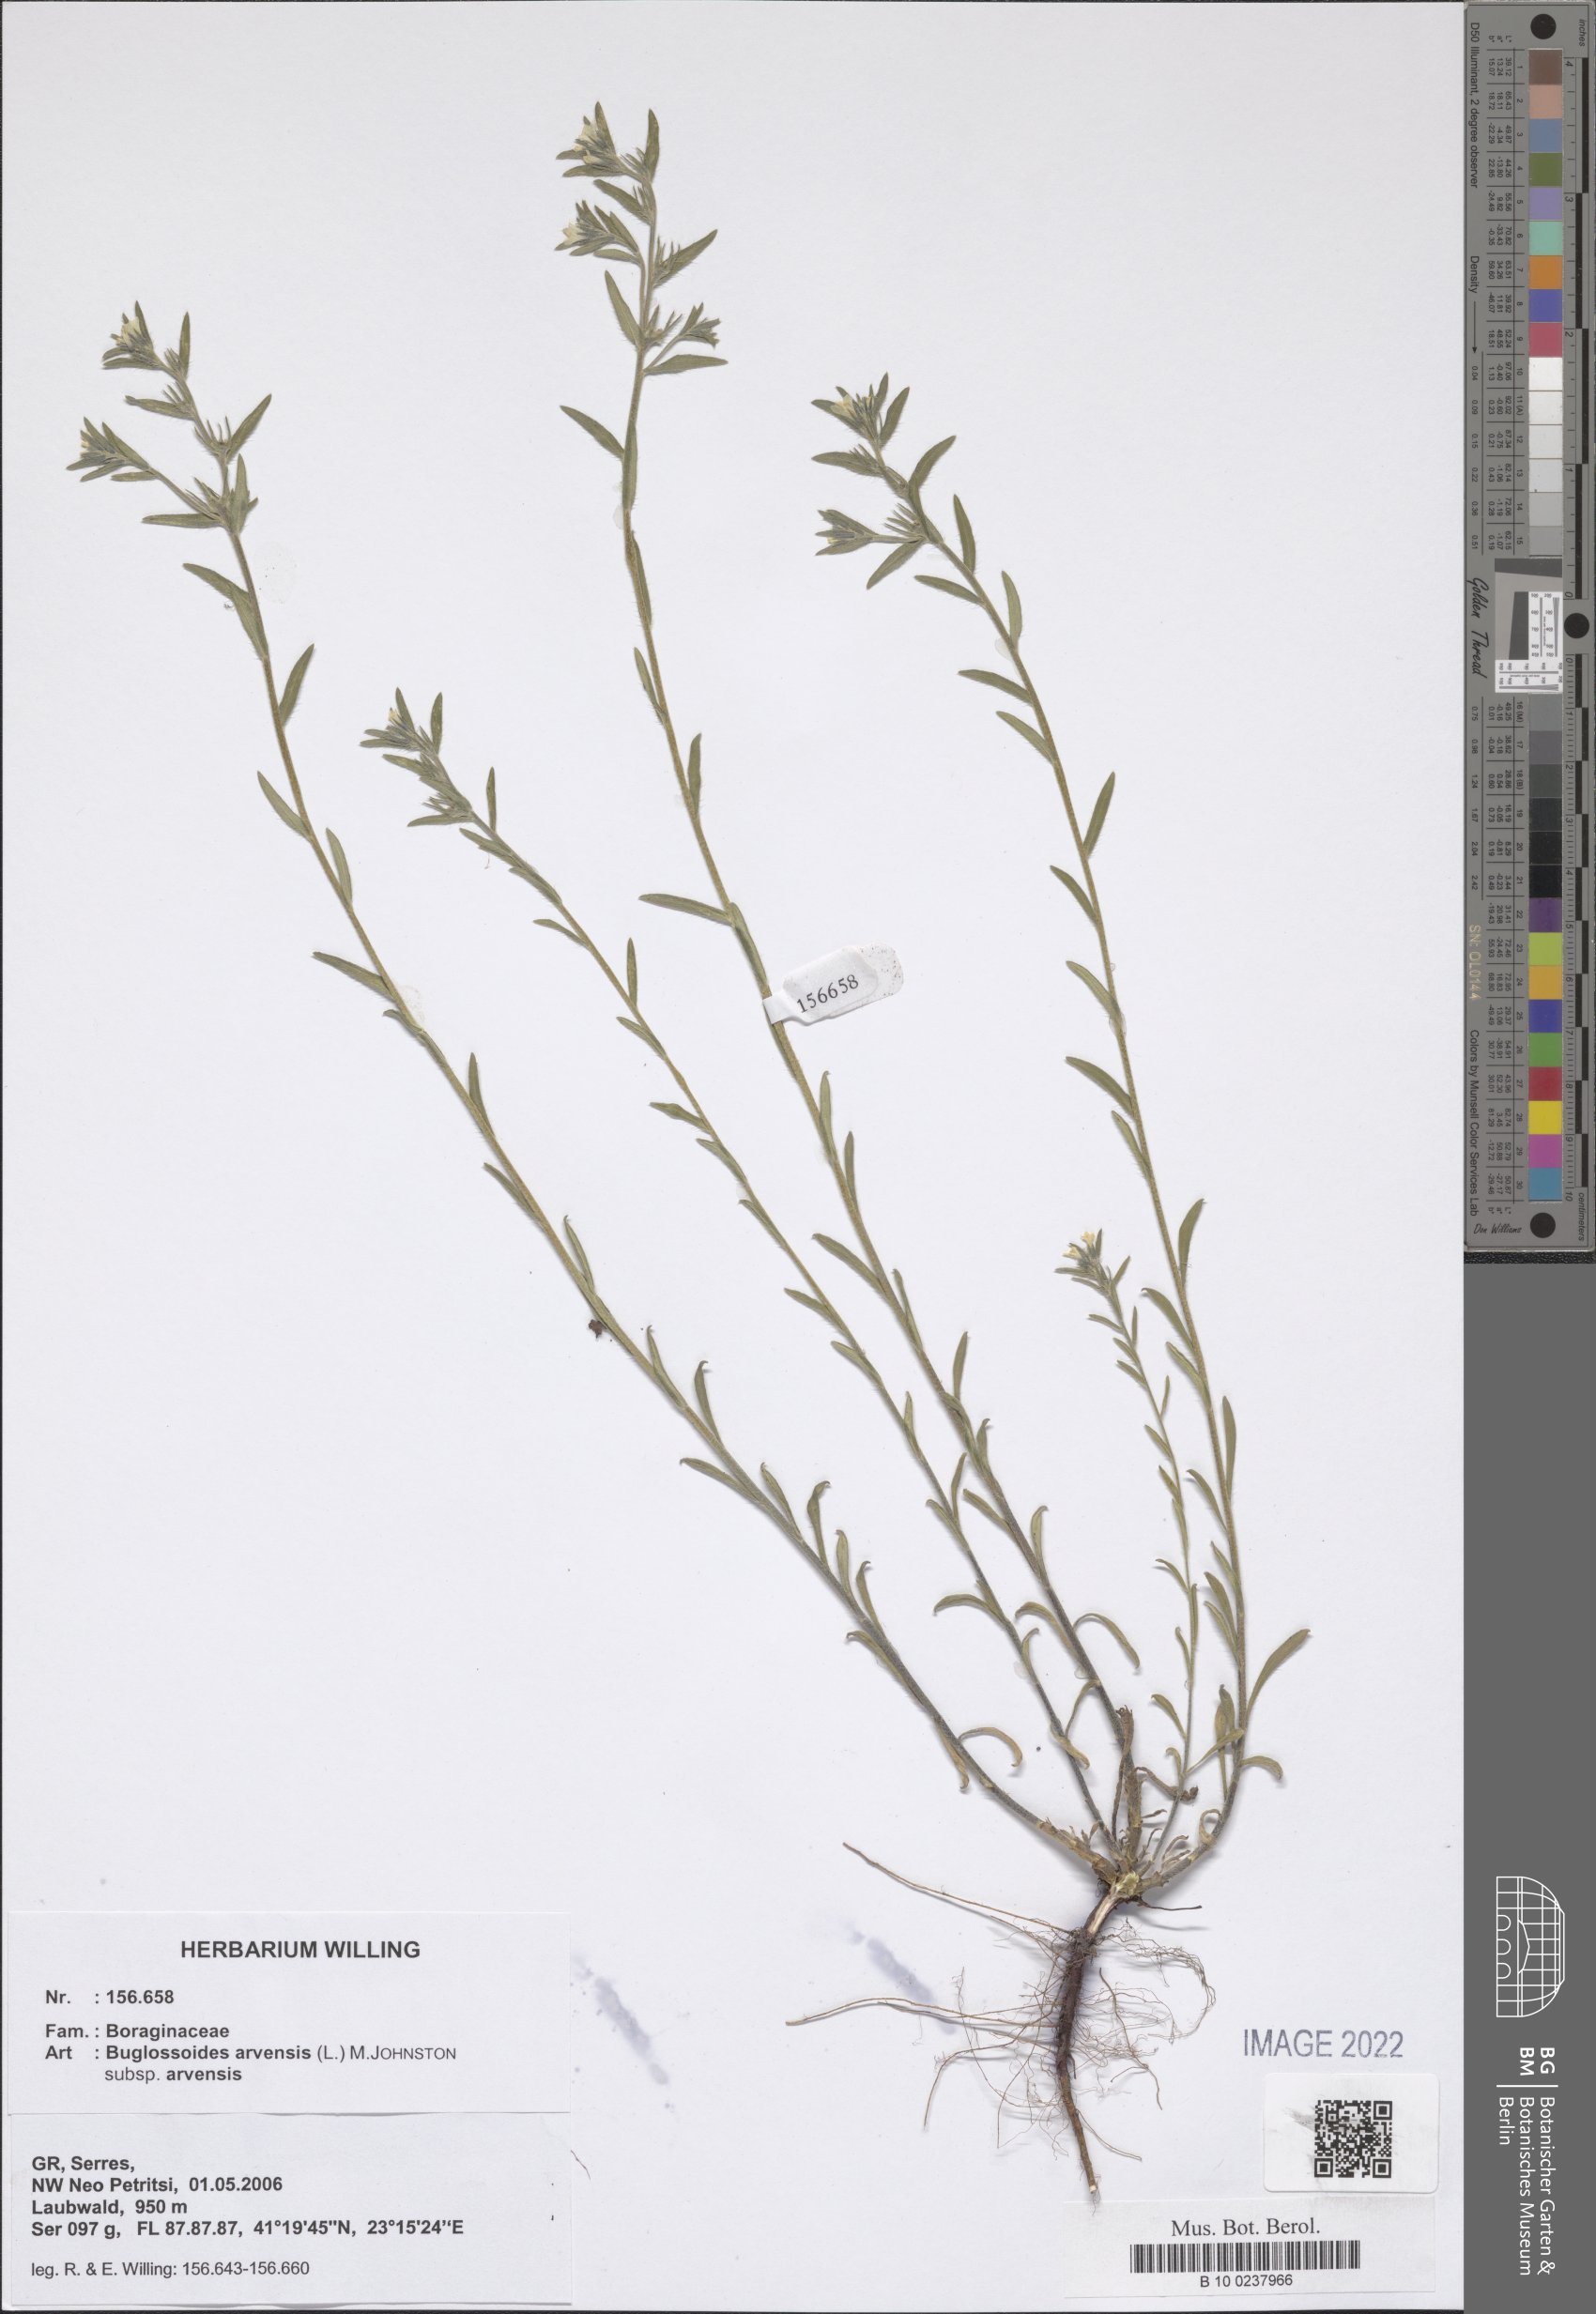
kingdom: Plantae
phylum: Tracheophyta
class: Magnoliopsida
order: Boraginales
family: Boraginaceae
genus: Buglossoides
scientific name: Buglossoides arvensis
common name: Corn gromwell
